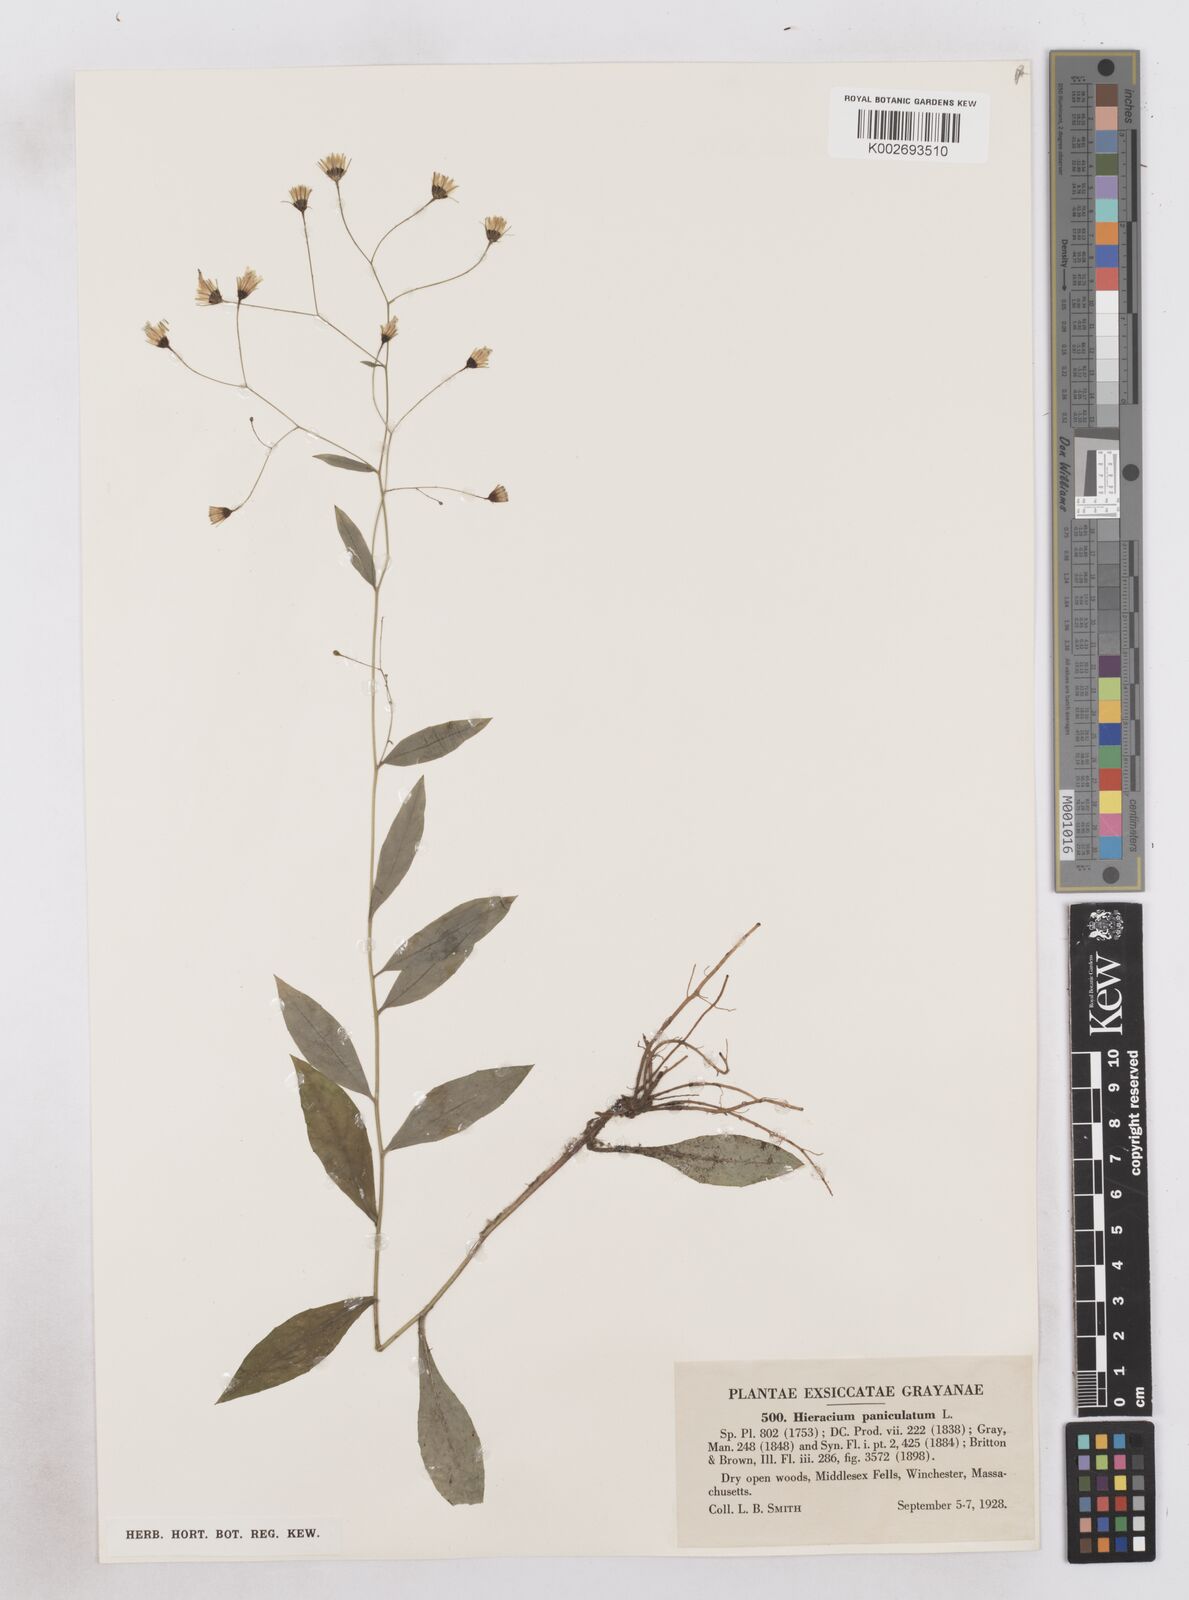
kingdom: Plantae
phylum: Tracheophyta
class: Magnoliopsida
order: Asterales
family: Asteraceae
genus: Hieracium
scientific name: Hieracium paniculatum
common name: Allegheny hawkweed
